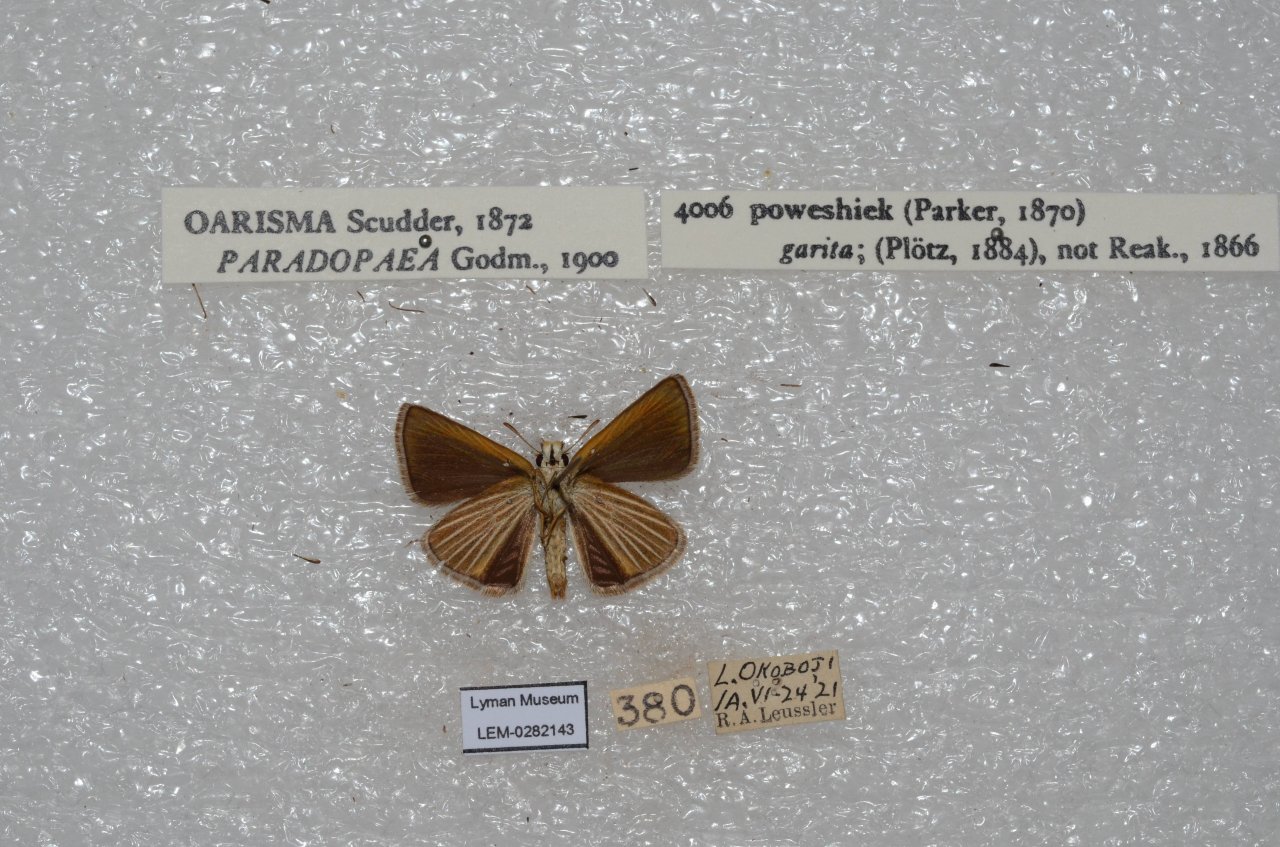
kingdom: Animalia
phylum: Arthropoda
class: Insecta
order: Lepidoptera
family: Hesperiidae
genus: Oarisma
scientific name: Oarisma poweshiek
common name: Powesheik Skipperling
